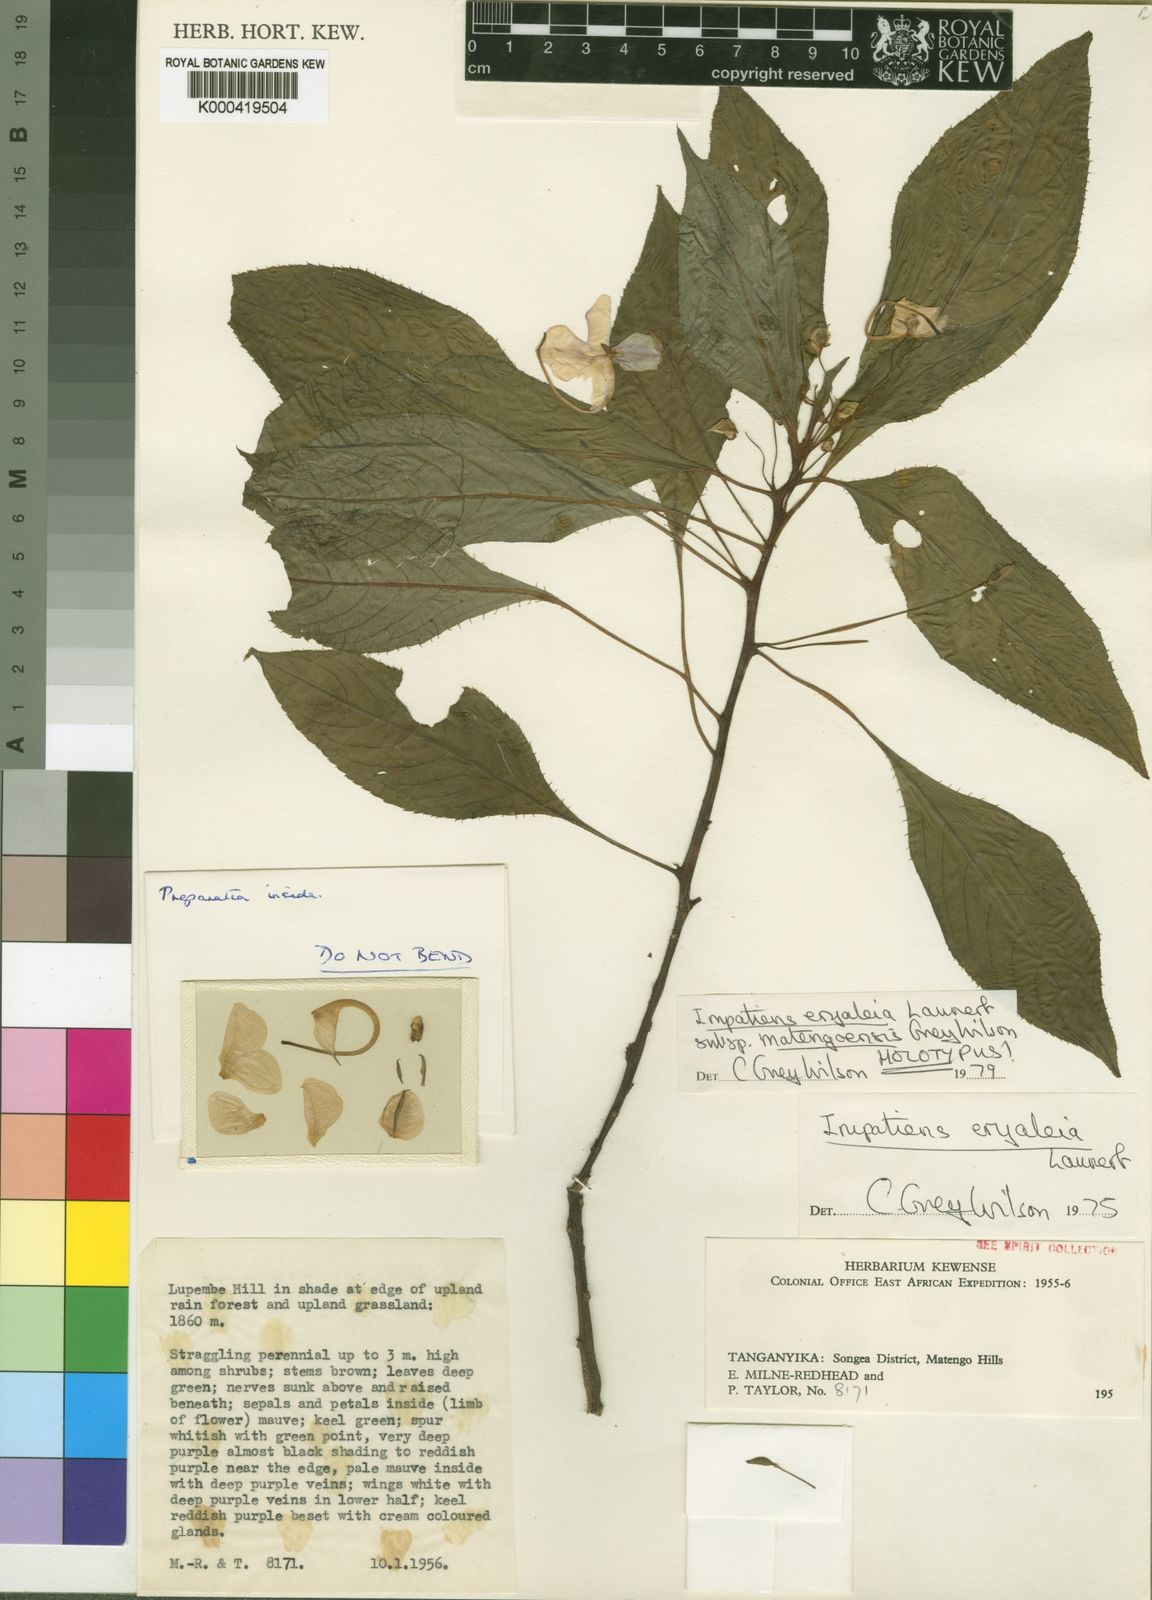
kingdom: Plantae
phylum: Tracheophyta
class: Magnoliopsida
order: Ericales
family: Balsaminaceae
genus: Impatiens
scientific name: Impatiens eryaleia
